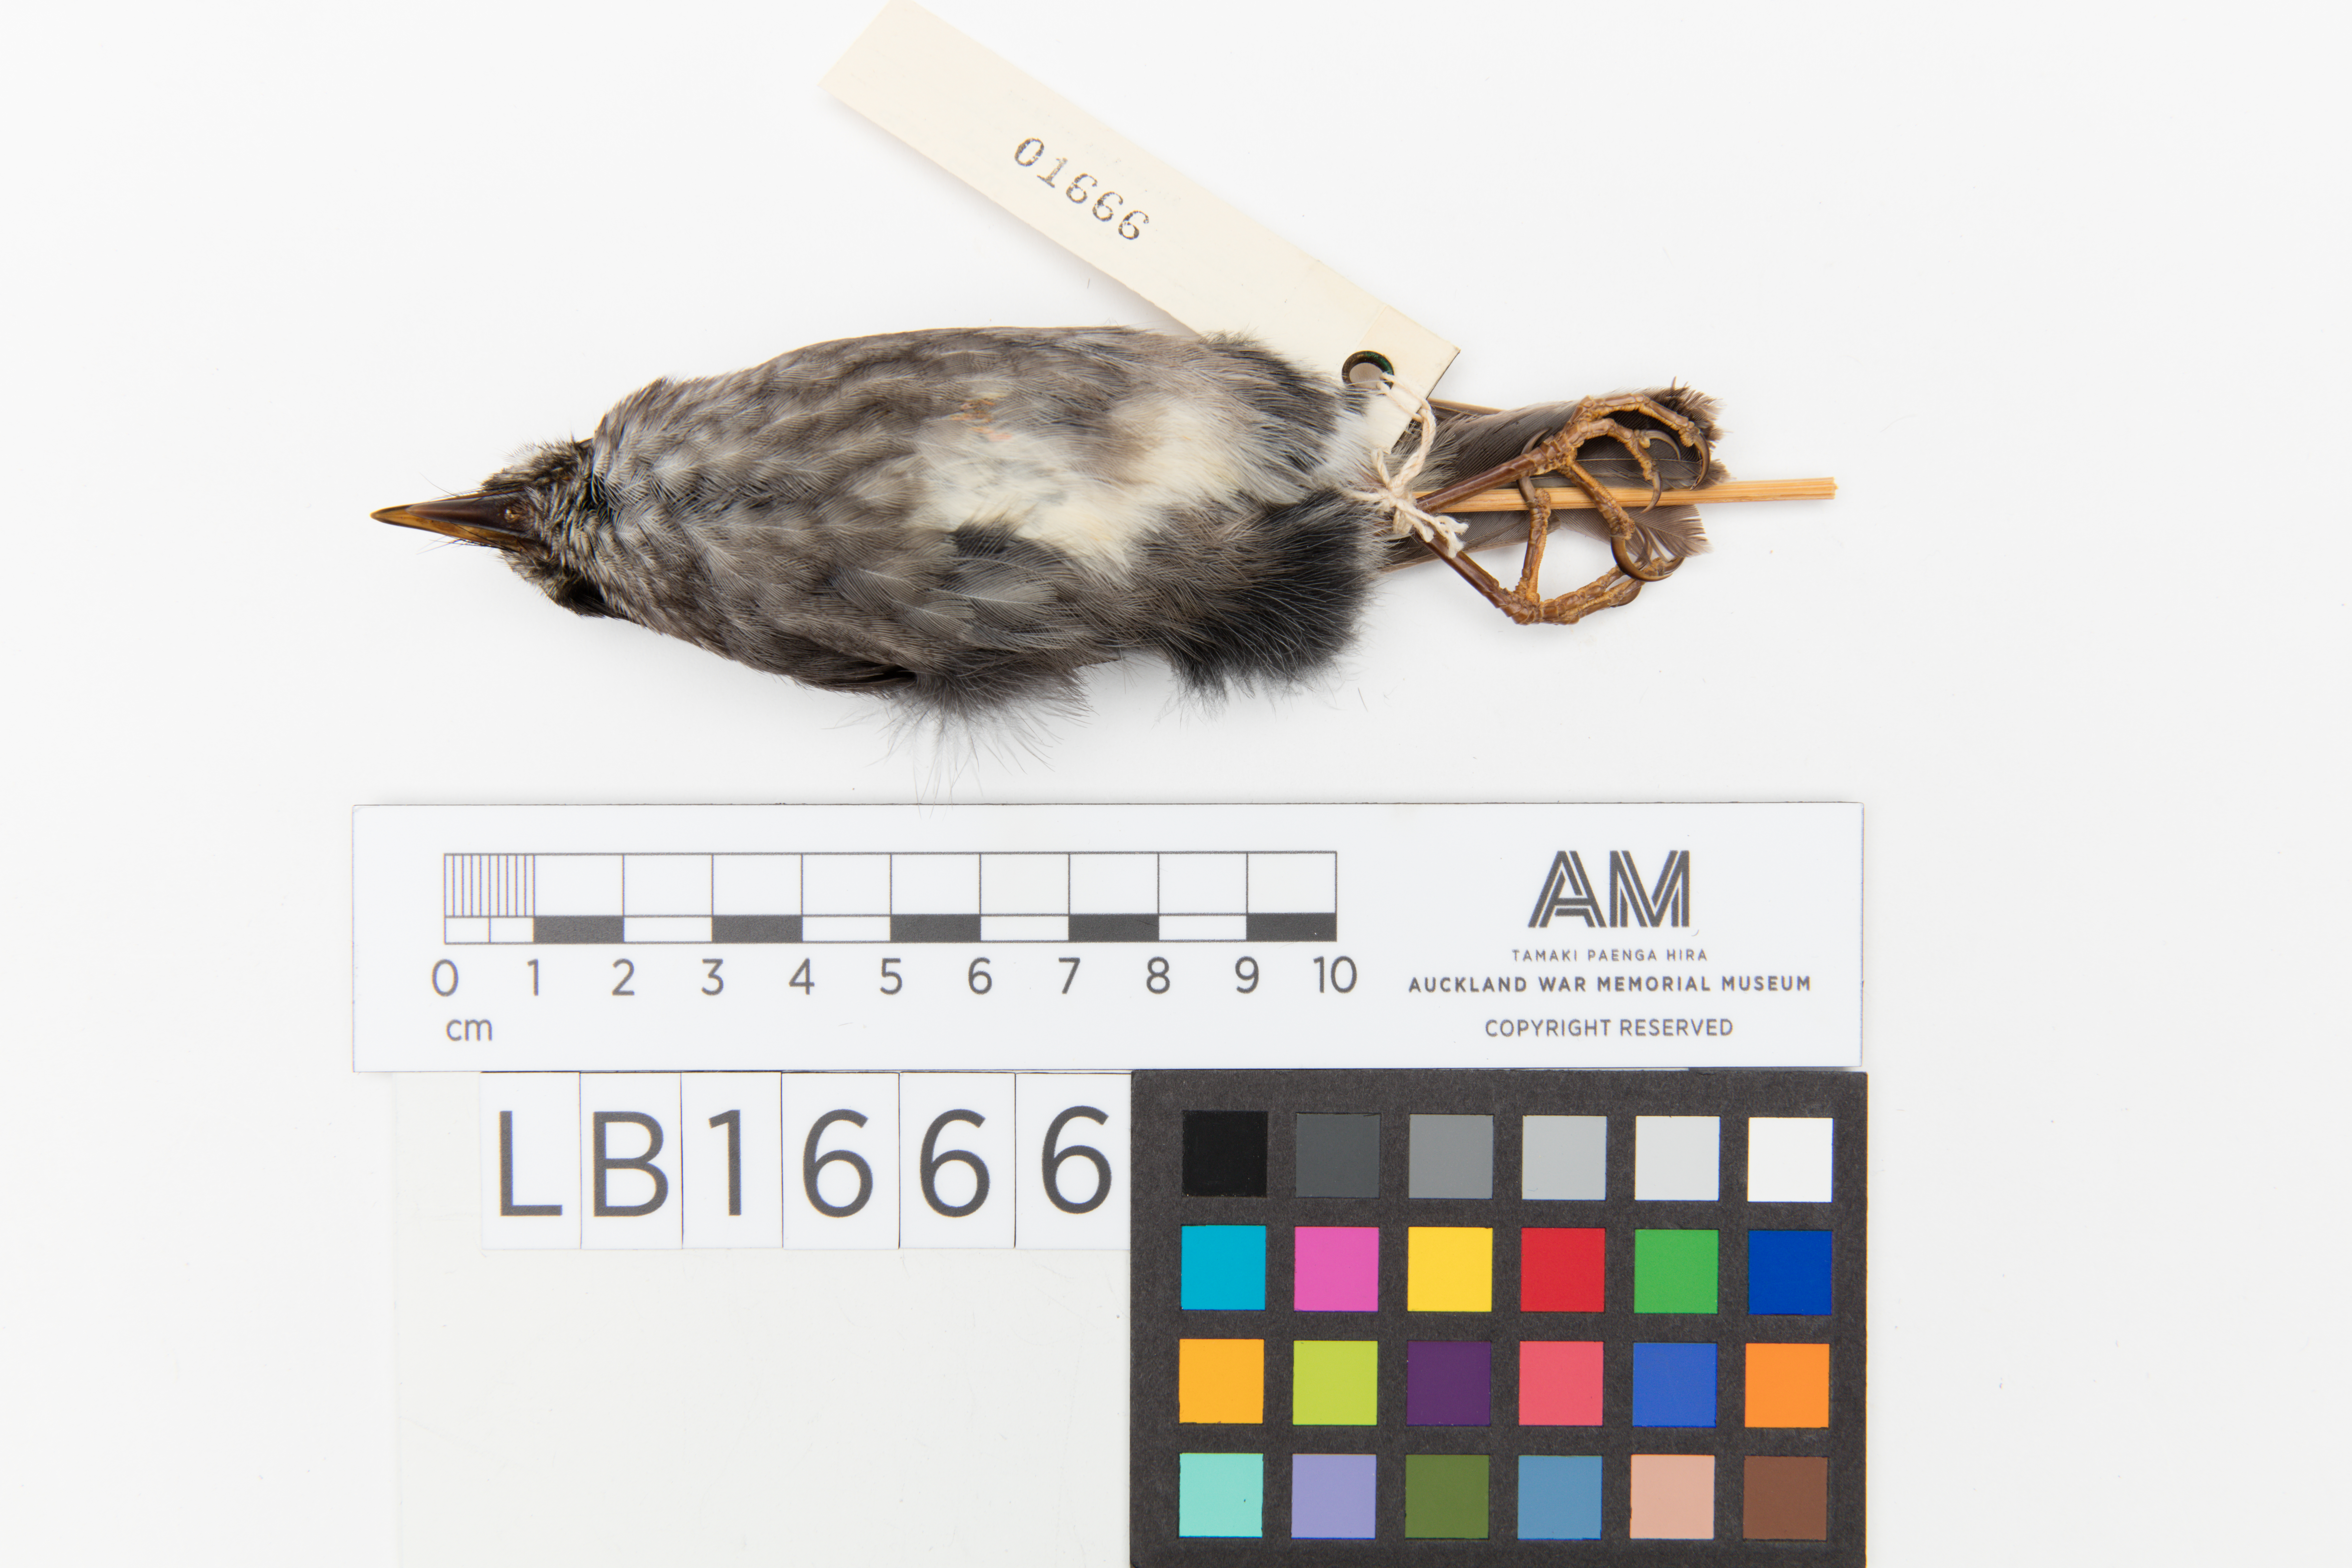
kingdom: Animalia
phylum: Chordata
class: Aves
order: Passeriformes
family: Petroicidae
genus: Petroica
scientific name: Petroica australis
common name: New zealand robin
